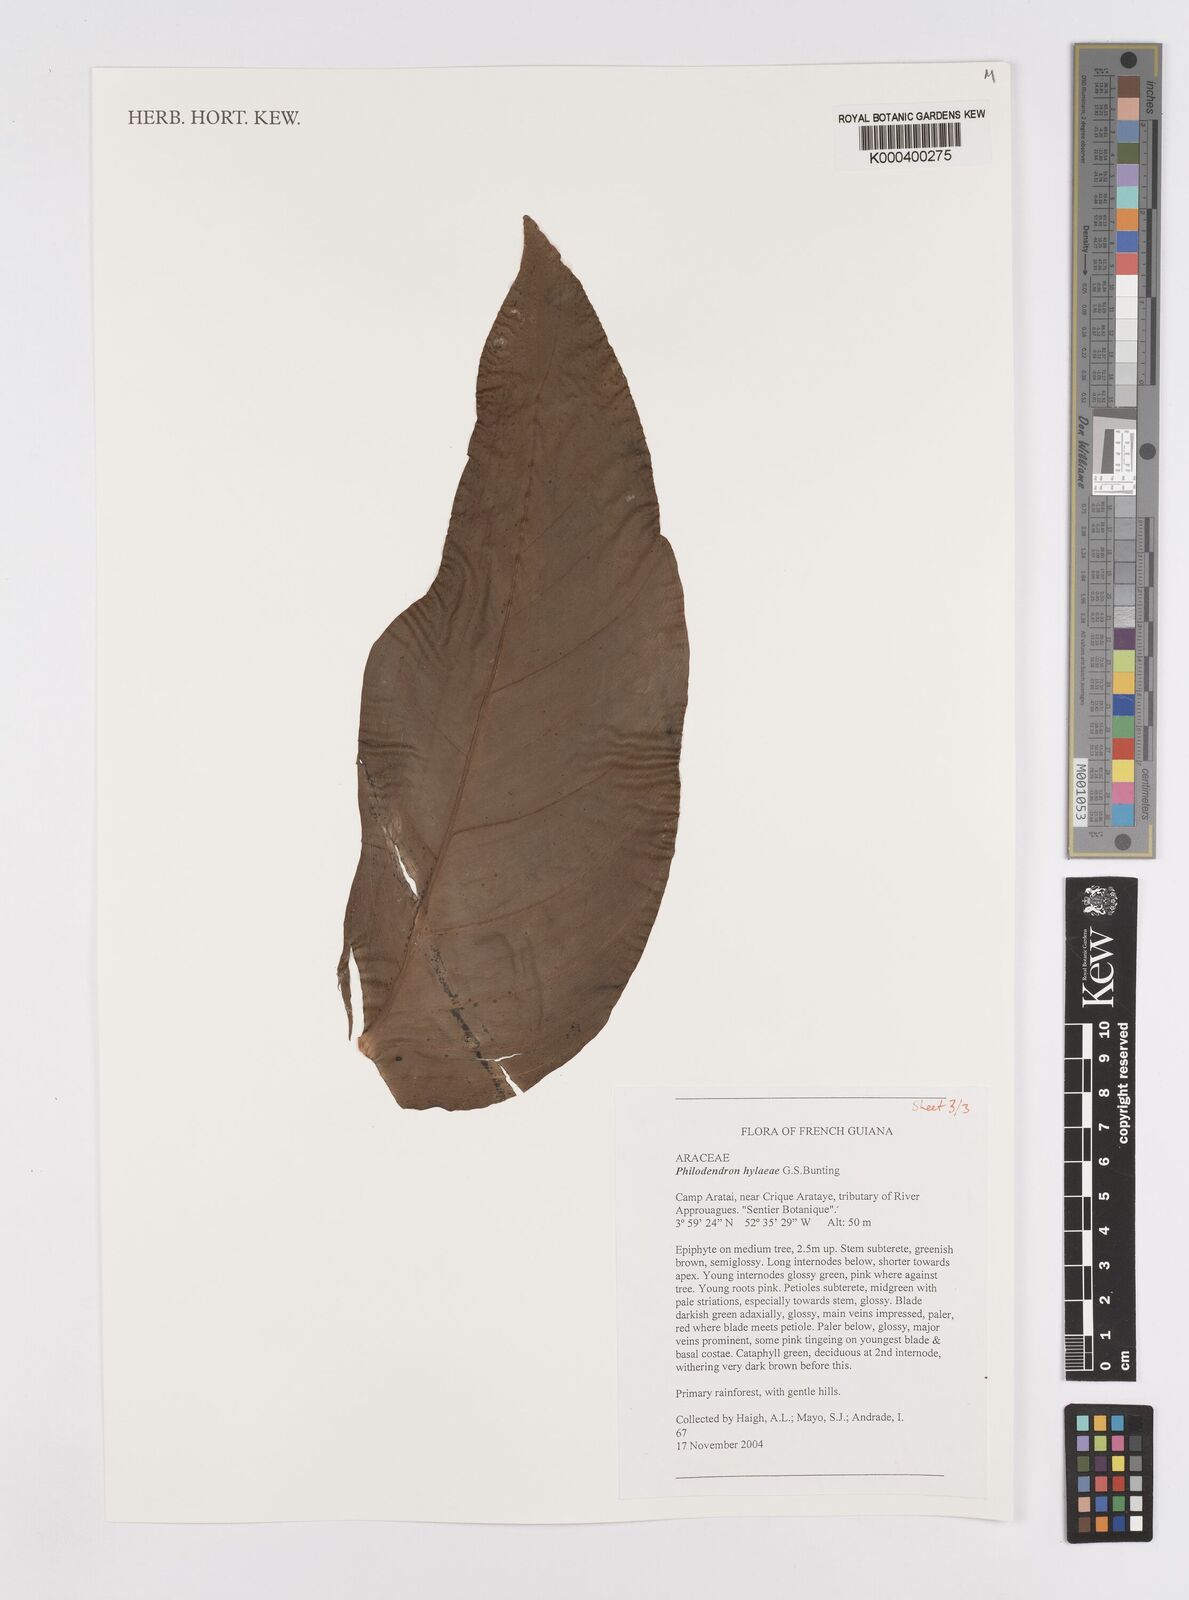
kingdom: Plantae
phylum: Tracheophyta
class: Liliopsida
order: Alismatales
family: Araceae
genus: Philodendron
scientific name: Philodendron hylaeae
